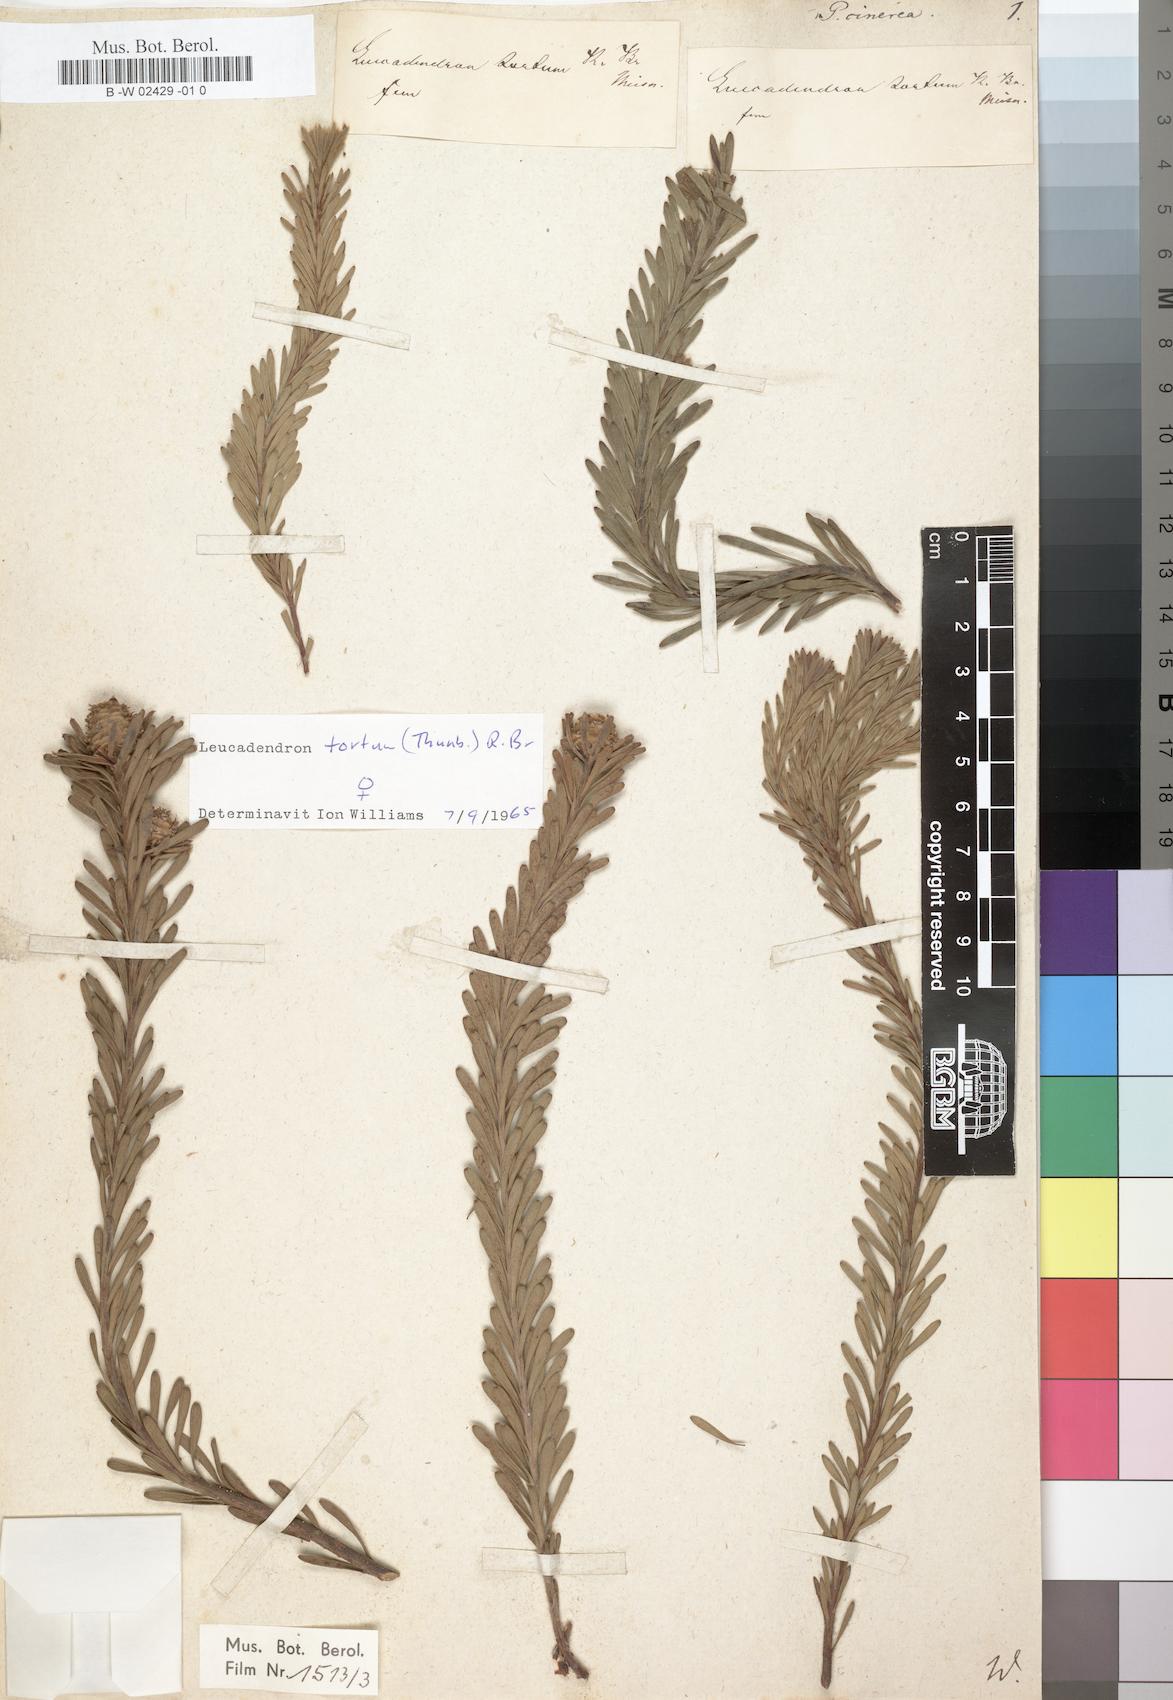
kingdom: Plantae
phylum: Tracheophyta
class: Magnoliopsida
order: Proteales
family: Proteaceae
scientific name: Proteaceae
